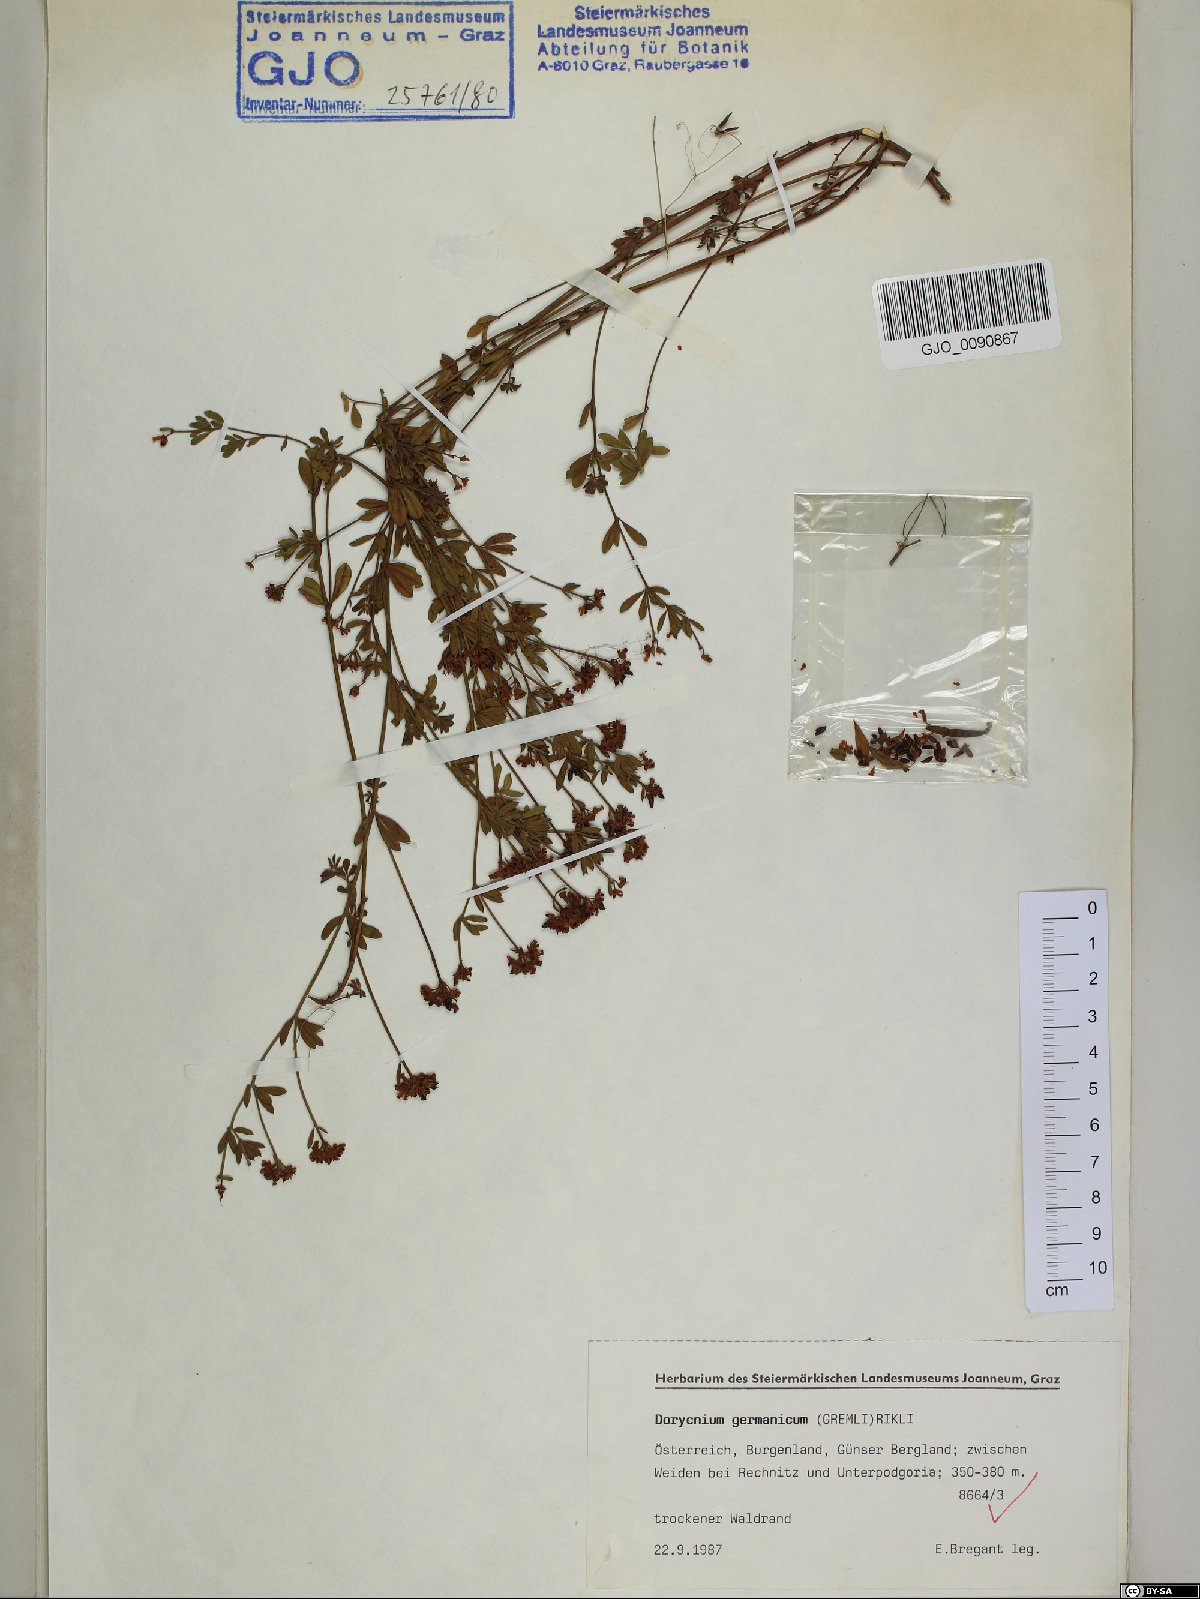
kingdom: Plantae
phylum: Tracheophyta
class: Magnoliopsida
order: Fabales
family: Fabaceae
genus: Lotus
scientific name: Lotus germanicus
